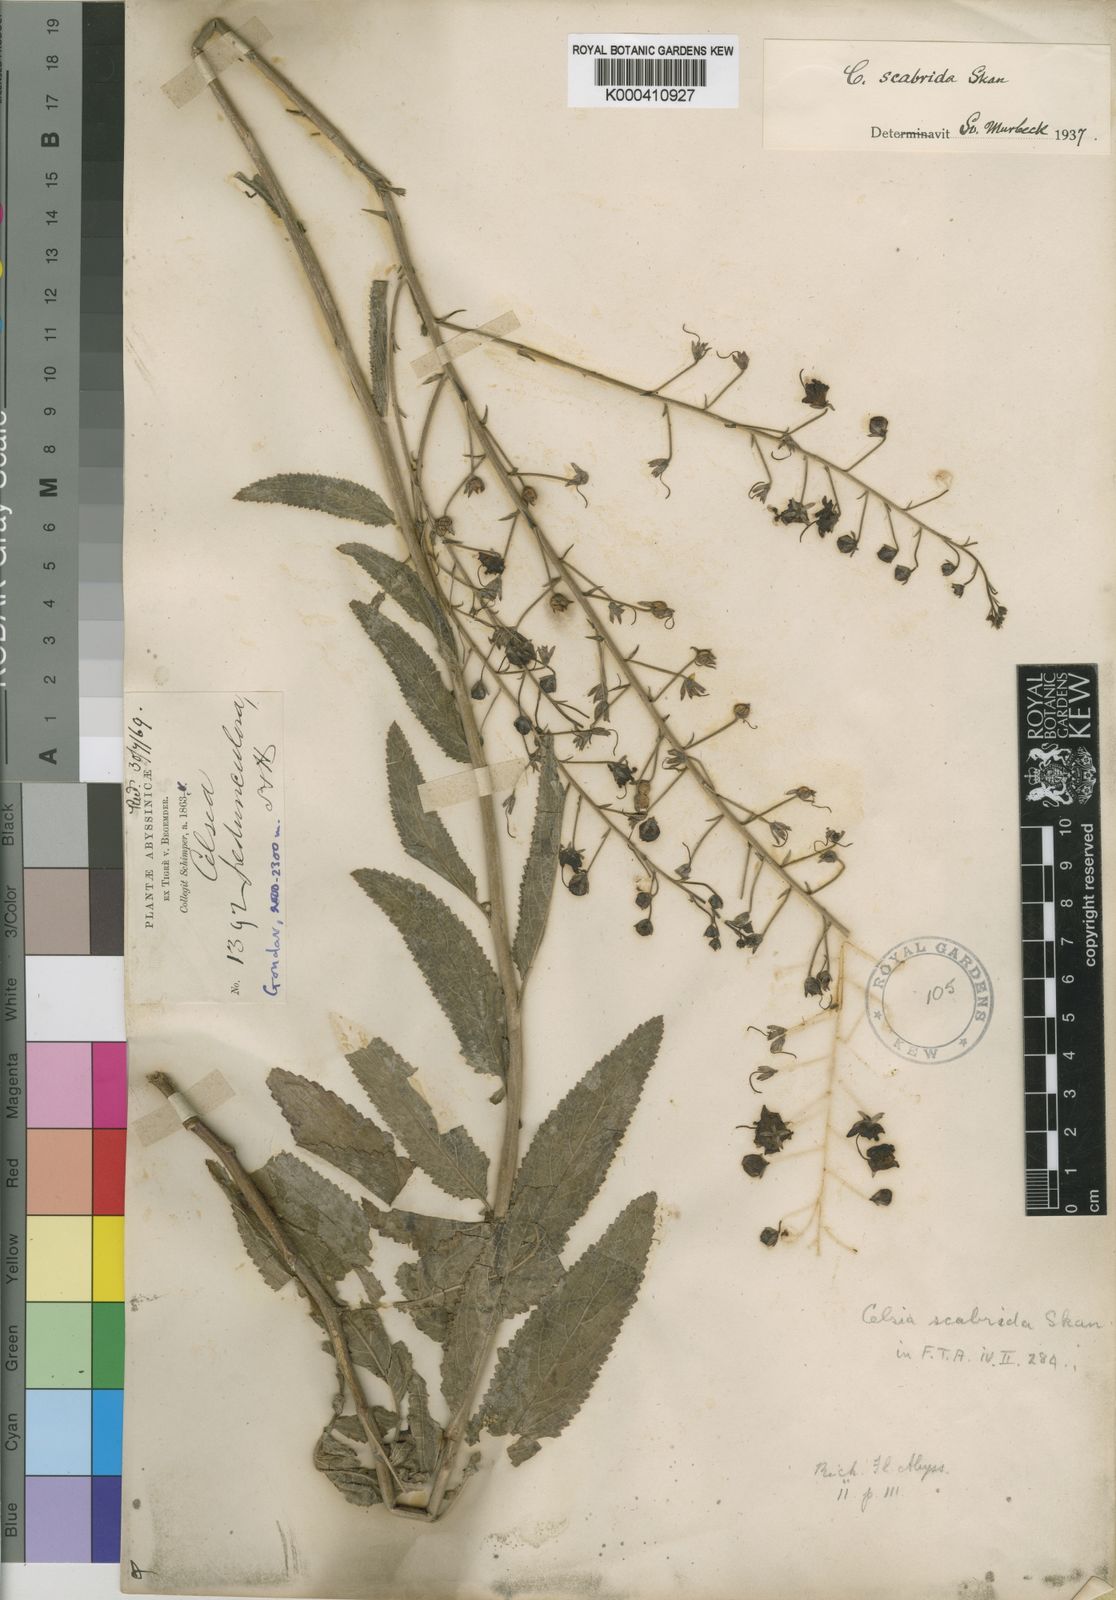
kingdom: Plantae
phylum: Tracheophyta
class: Magnoliopsida
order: Lamiales
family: Scrophulariaceae
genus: Verbascum
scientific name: Verbascum scabridum
